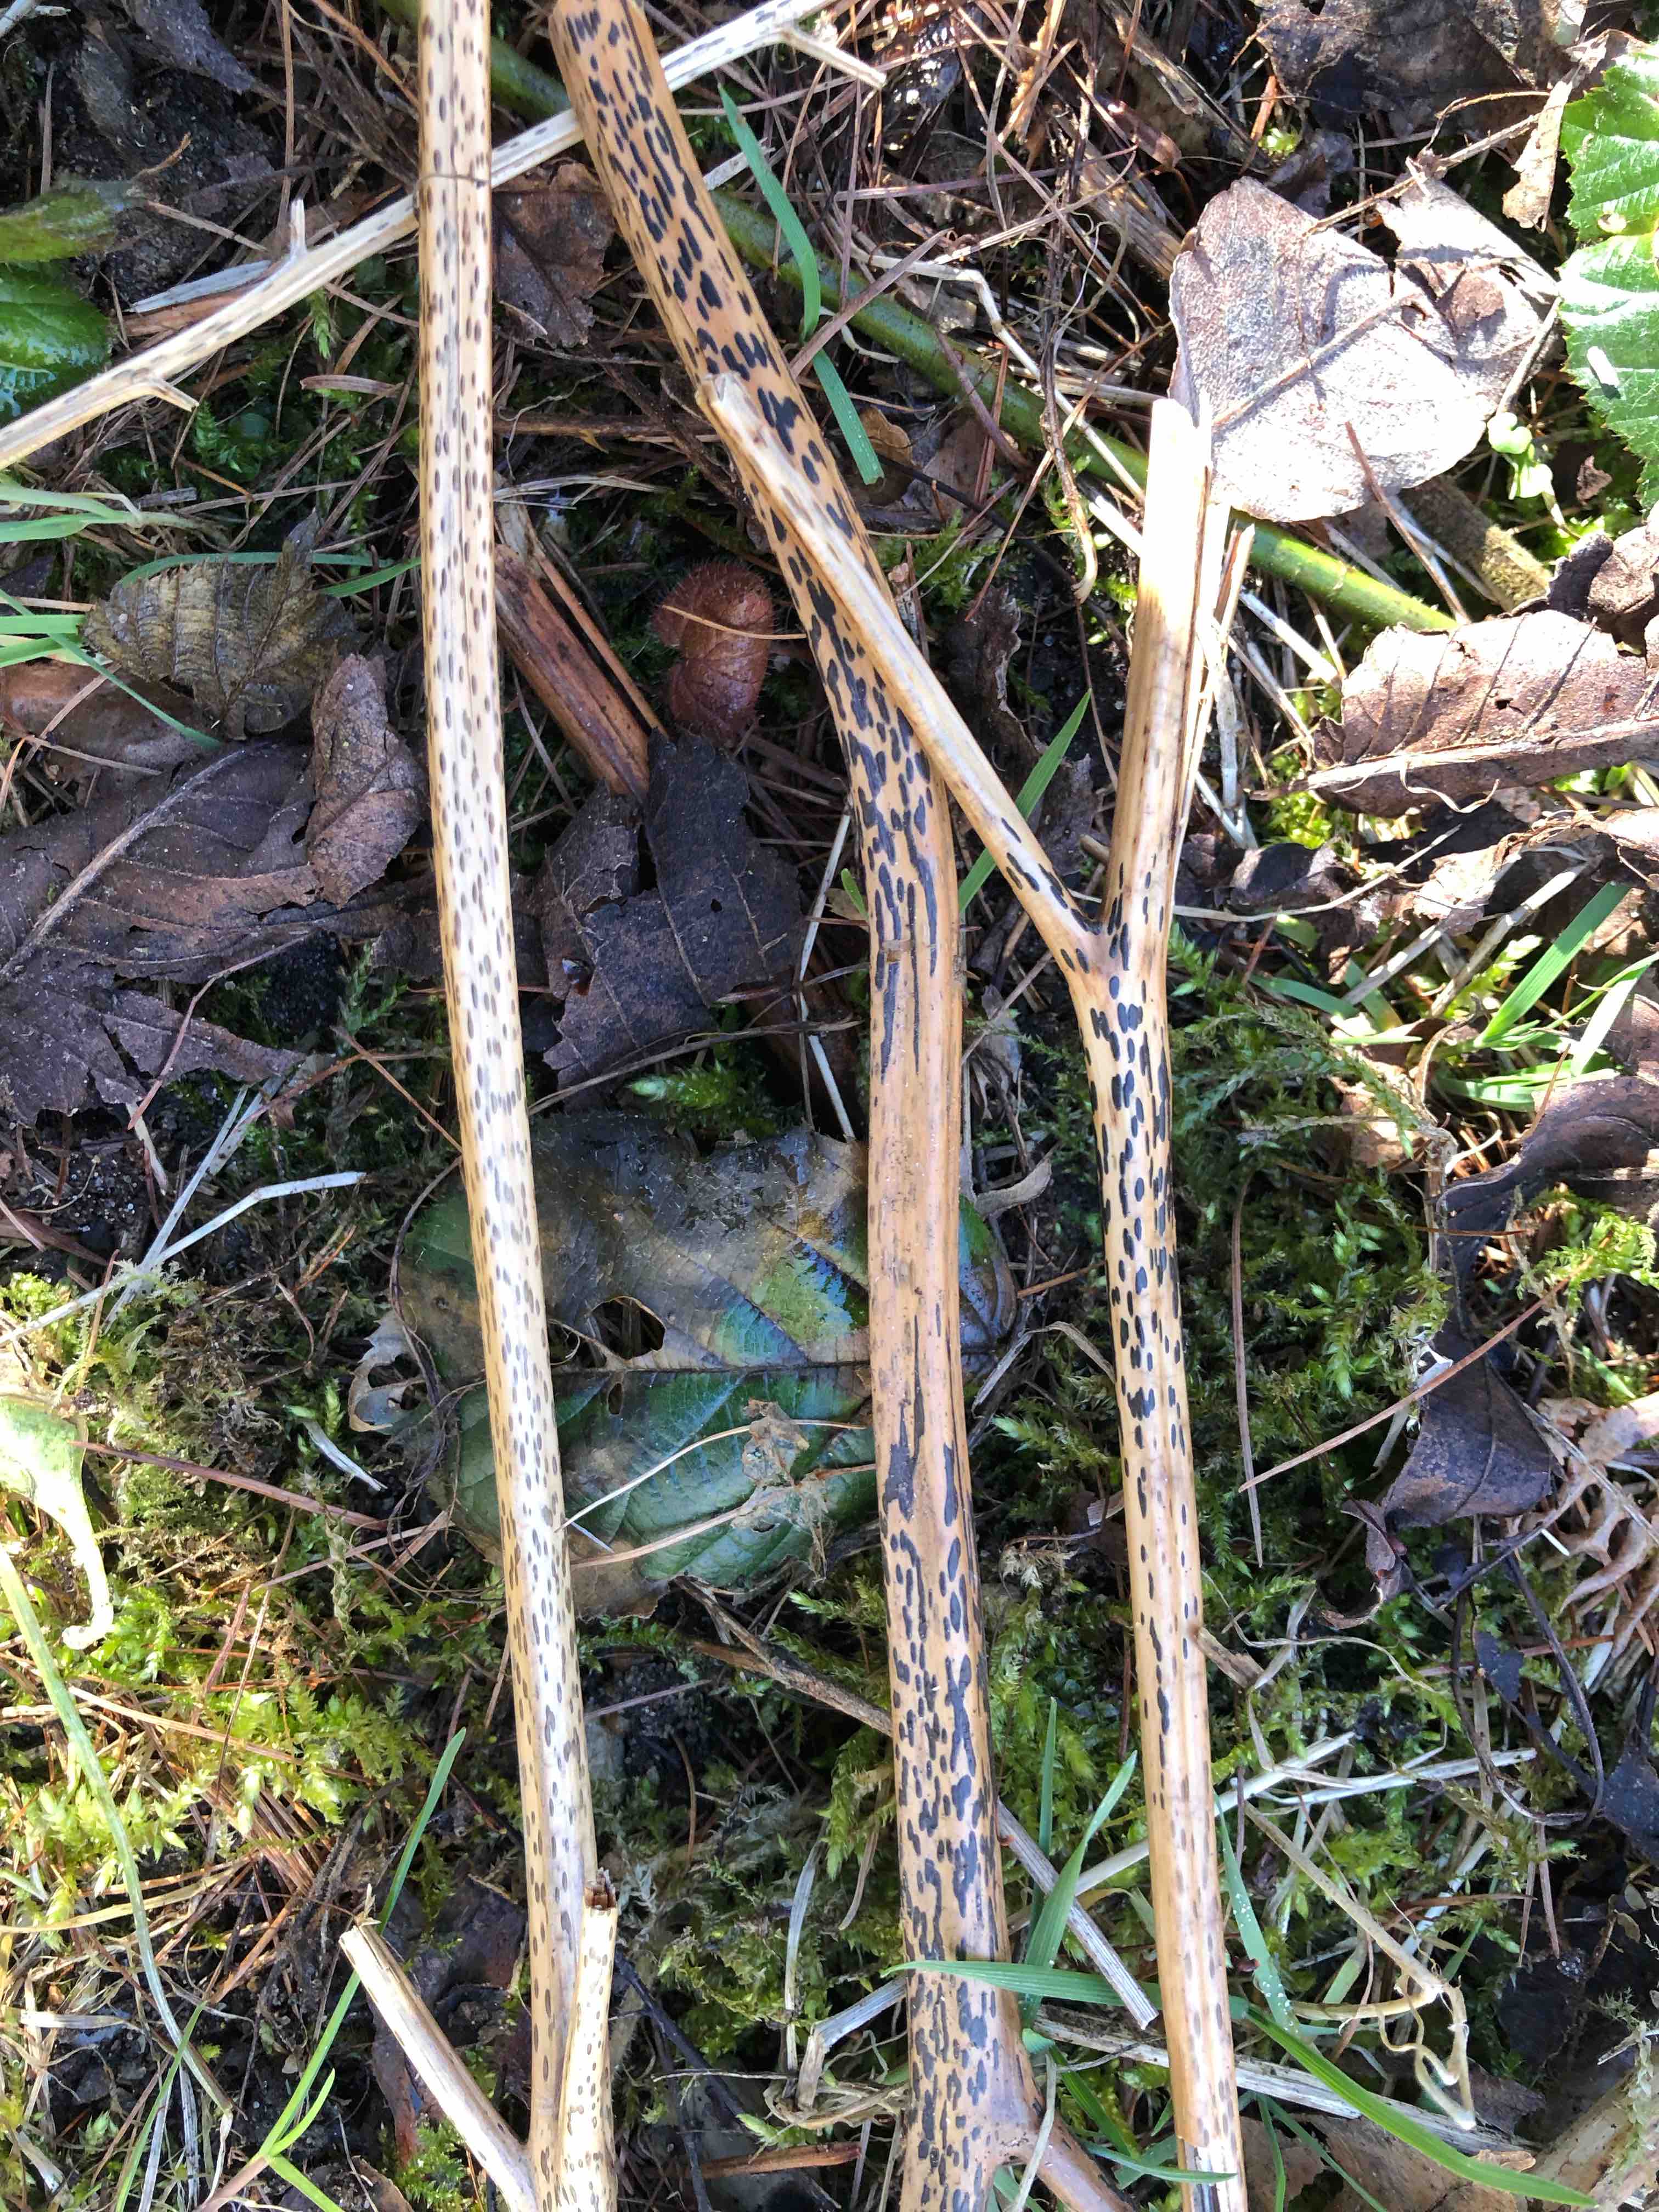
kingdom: Fungi
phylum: Ascomycota
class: Dothideomycetes
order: Pleosporales
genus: Rhopographus
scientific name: Rhopographus filicinus
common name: Bracken map
